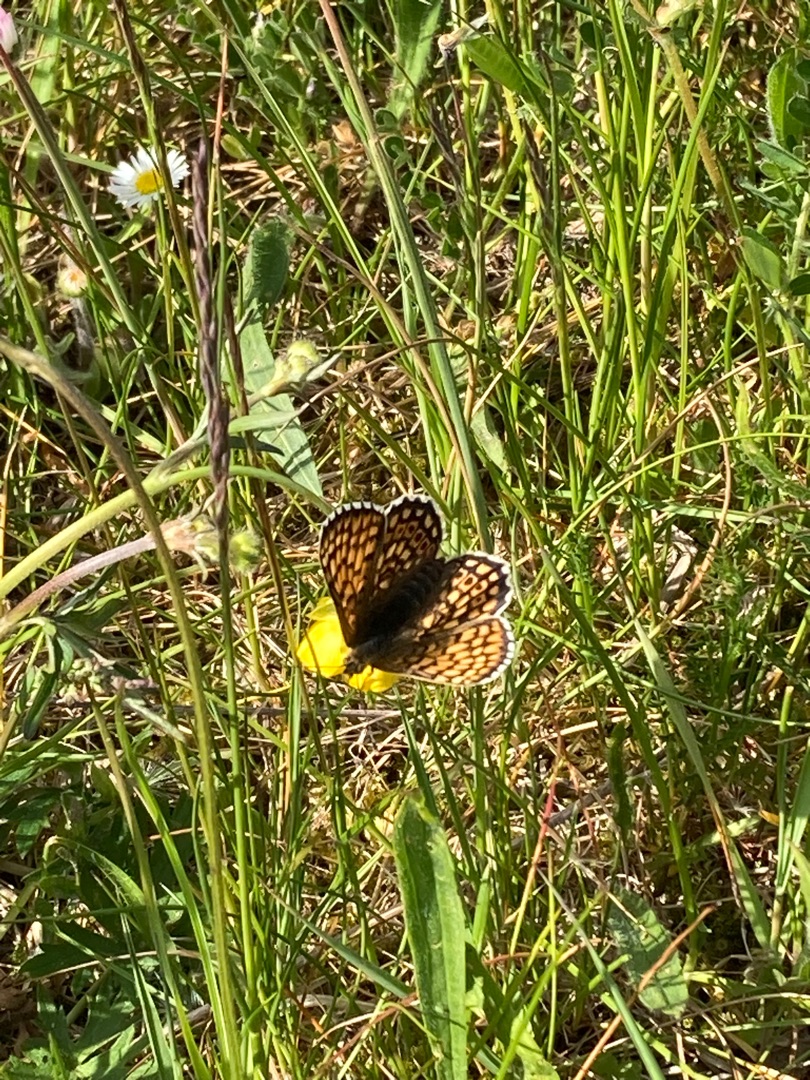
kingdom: Animalia
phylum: Arthropoda
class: Insecta
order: Lepidoptera
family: Nymphalidae
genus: Melitaea
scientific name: Melitaea cinxia
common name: Okkergul pletvinge
